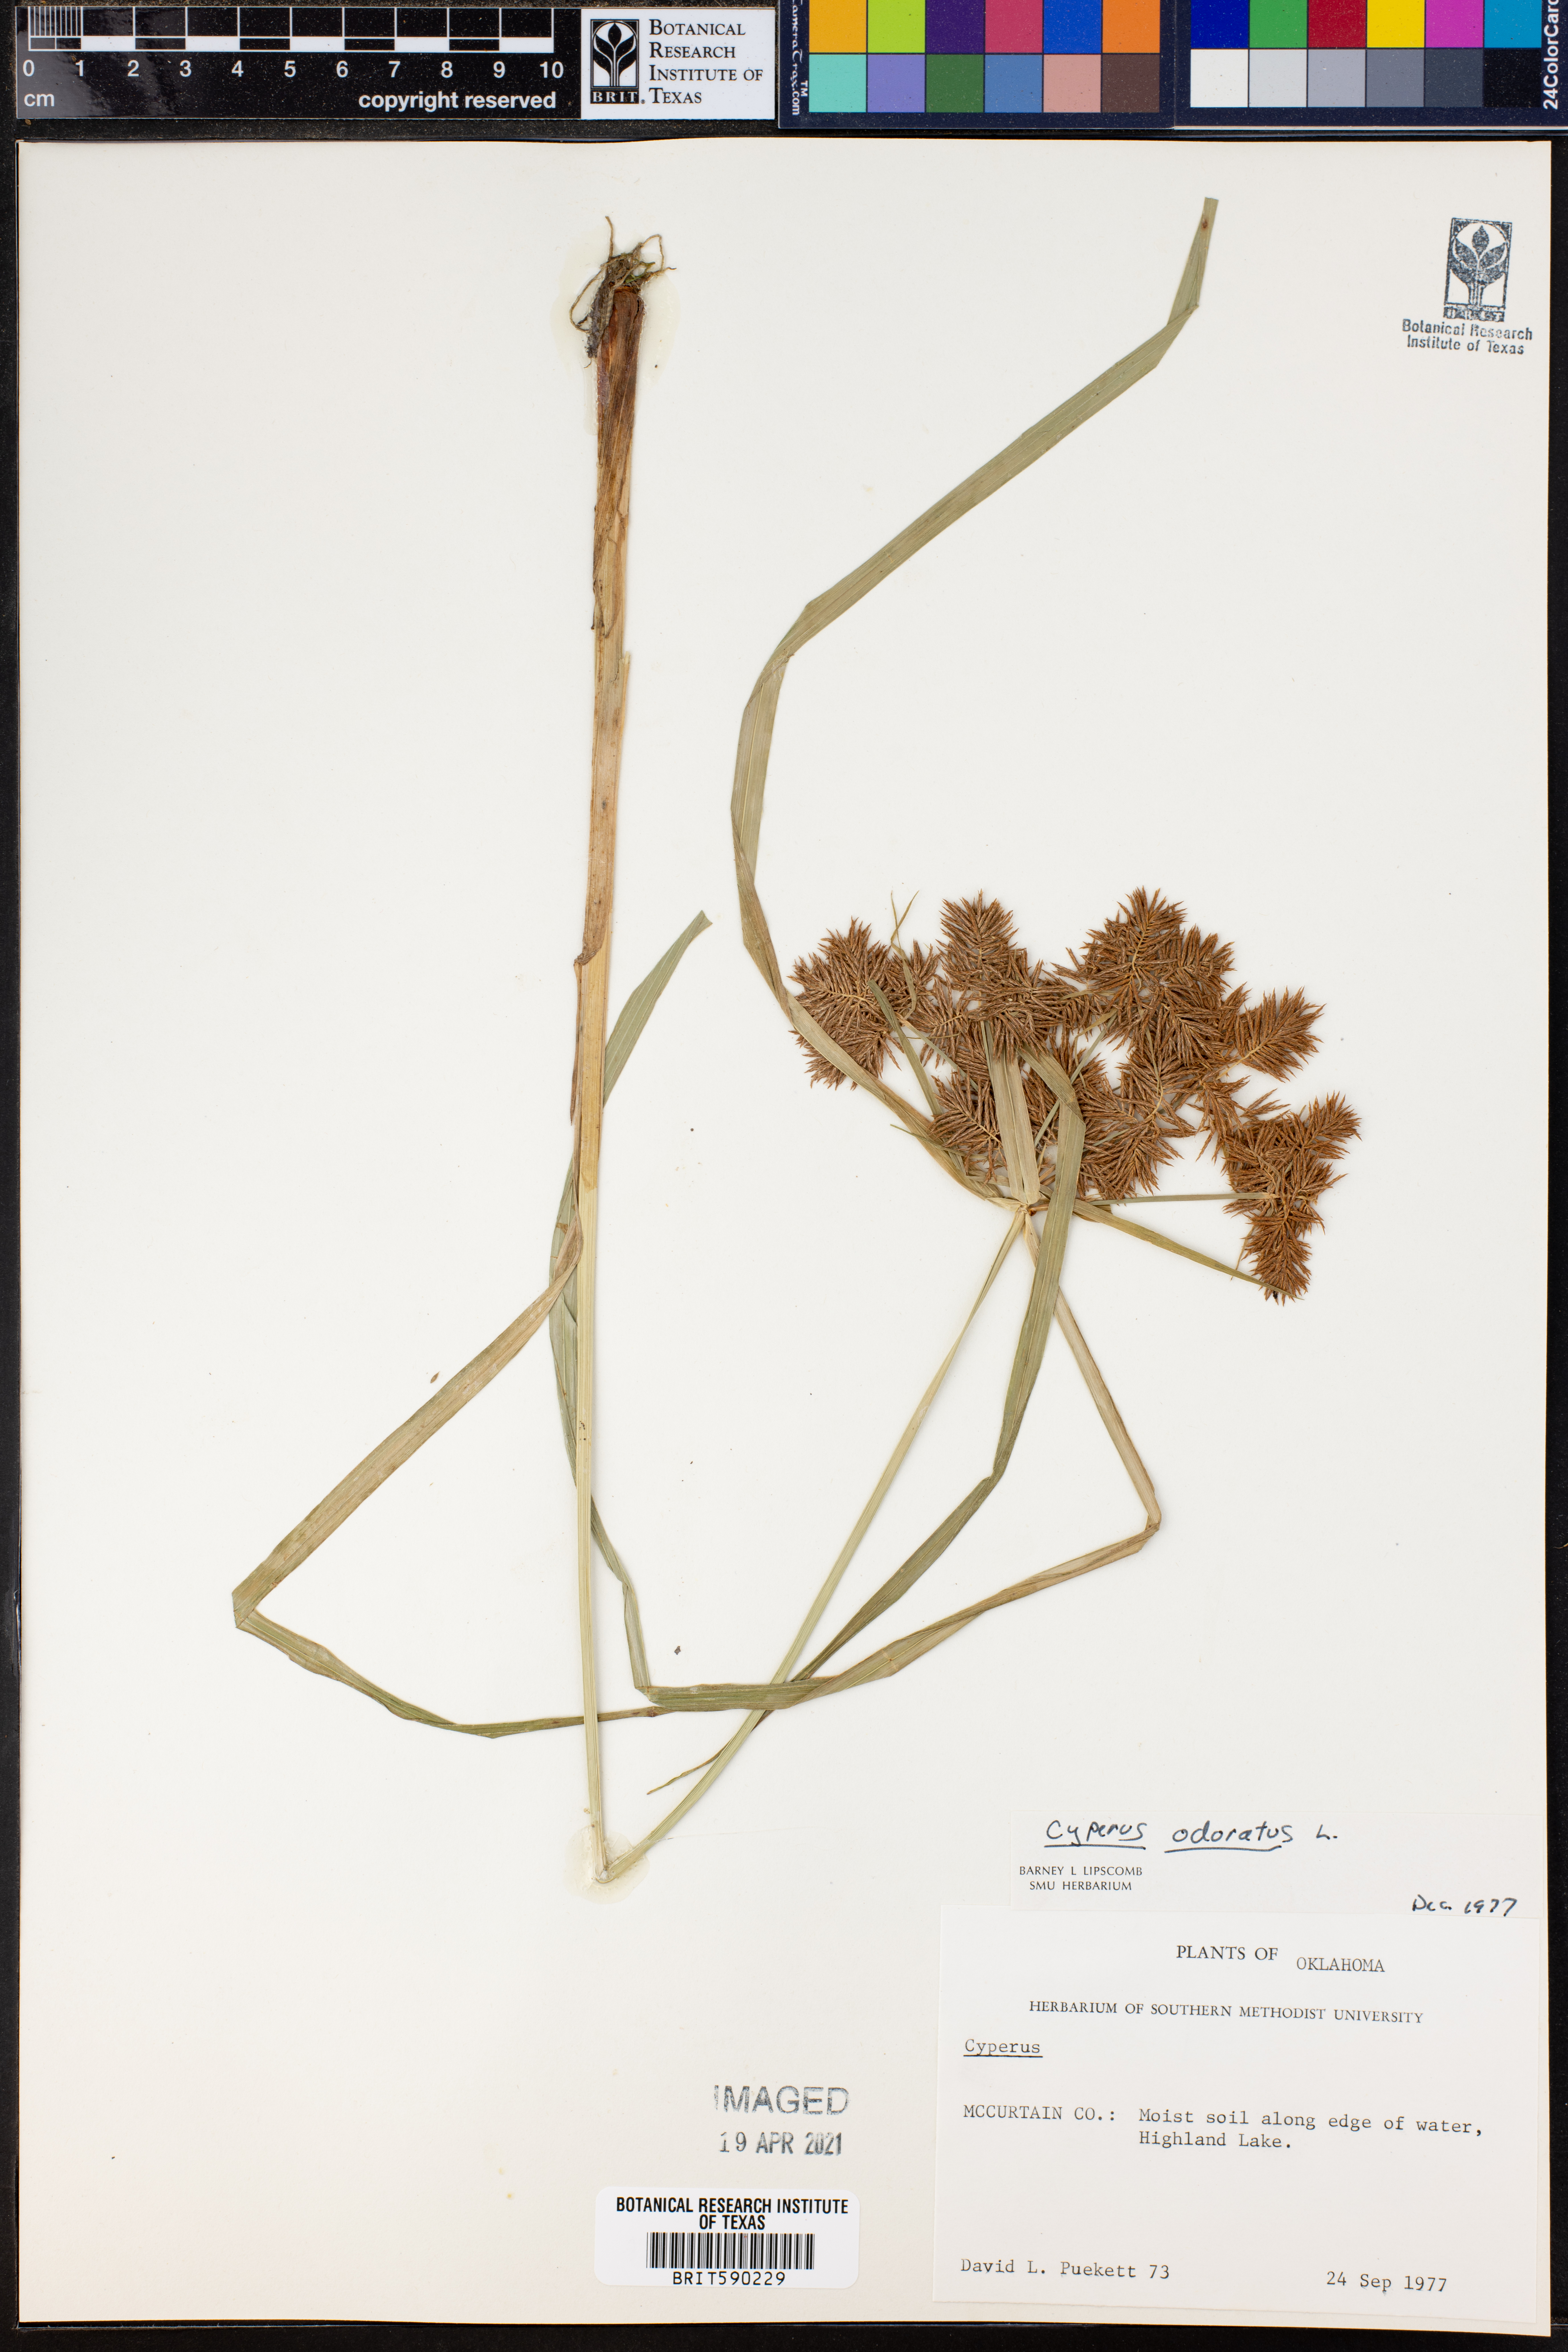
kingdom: Plantae
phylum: Tracheophyta
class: Liliopsida
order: Poales
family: Cyperaceae
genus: Cyperus
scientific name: Cyperus odoratus
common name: Fragrant flatsedge
